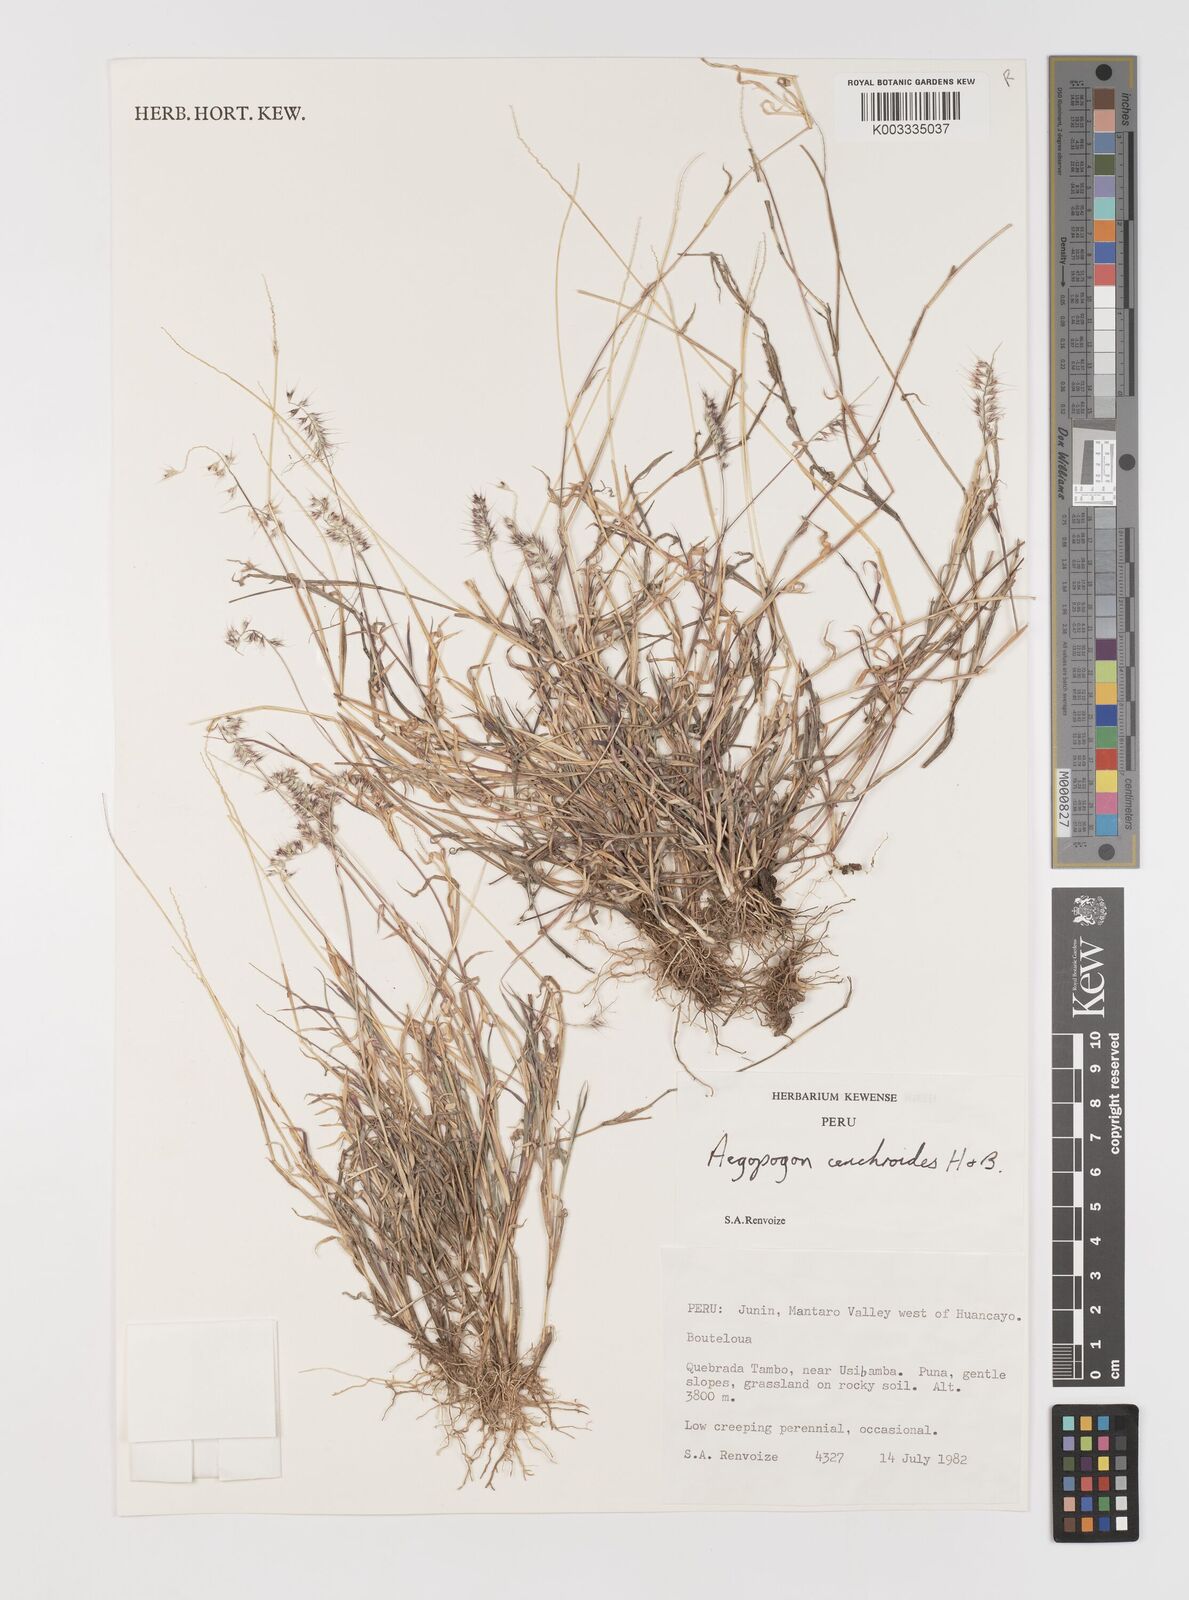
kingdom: Plantae
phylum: Tracheophyta
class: Liliopsida
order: Poales
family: Poaceae
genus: Muhlenbergia
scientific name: Muhlenbergia cenchroides
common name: Relaxgrass
